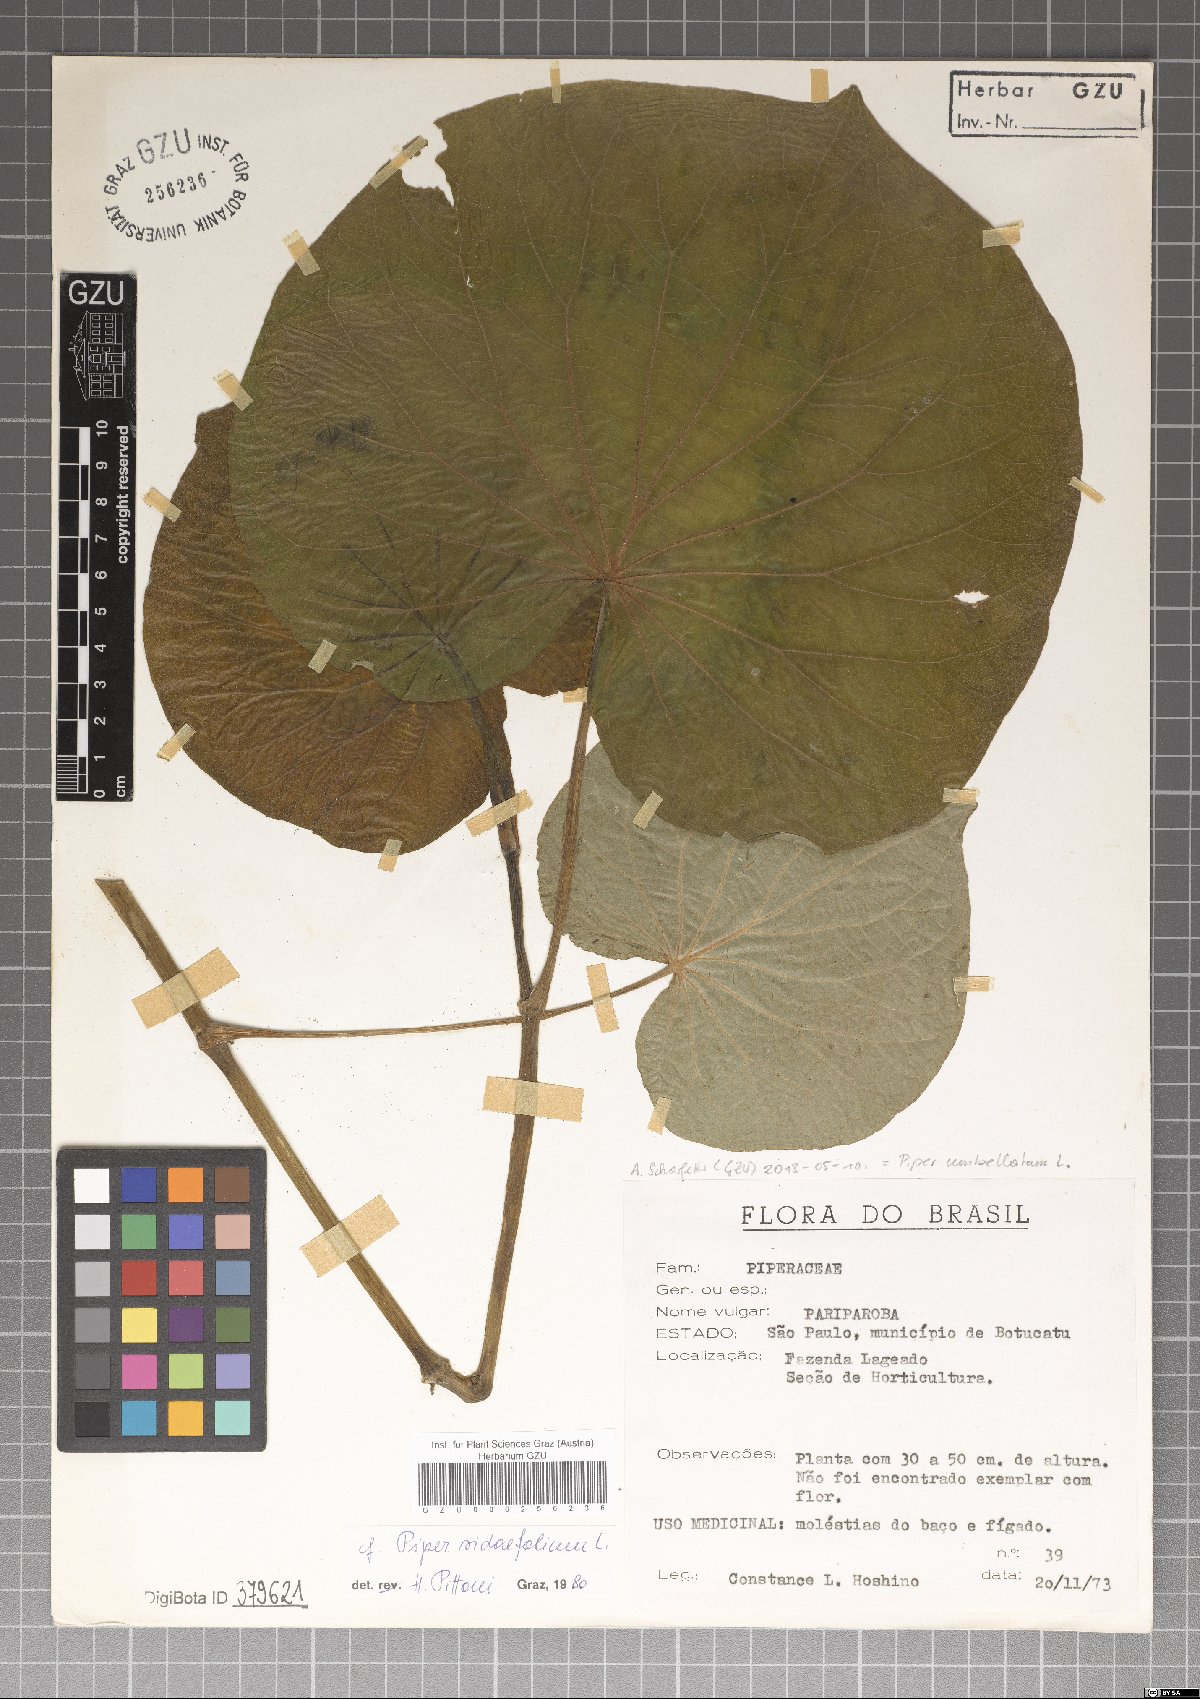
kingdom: Plantae
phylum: Tracheophyta
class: Magnoliopsida
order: Piperales
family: Piperaceae
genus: Piper
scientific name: Piper umbellatum
